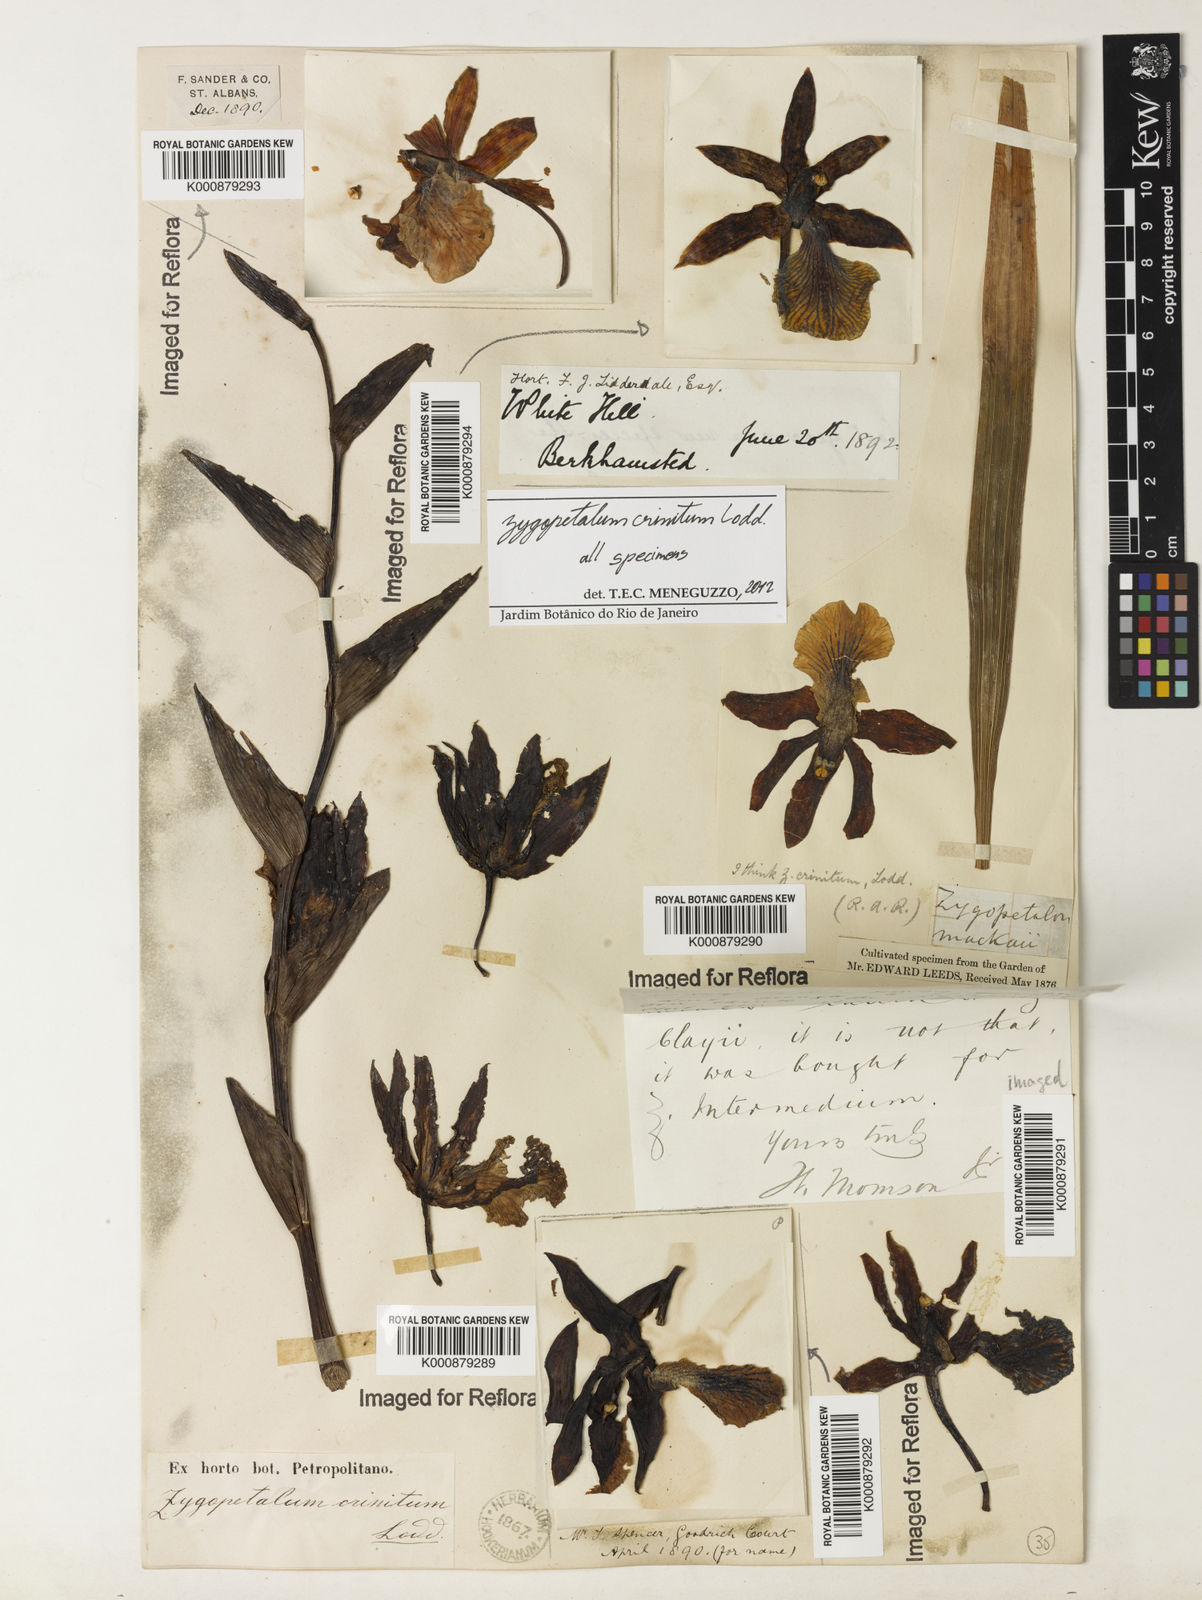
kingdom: Plantae
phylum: Tracheophyta
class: Liliopsida
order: Asparagales
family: Orchidaceae
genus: Zygopetalum
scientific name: Zygopetalum crinitum
